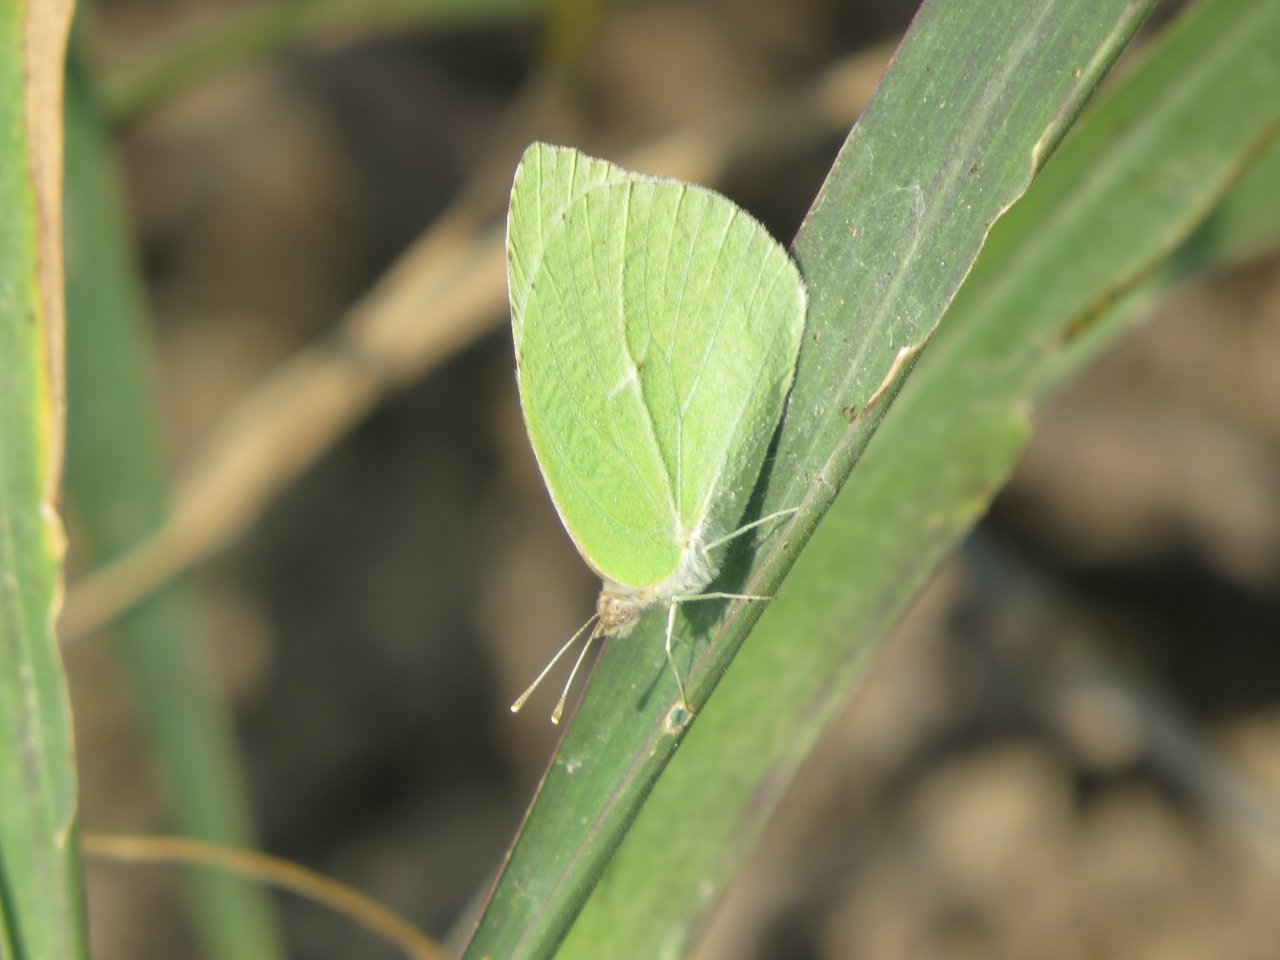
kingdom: Animalia
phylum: Arthropoda
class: Insecta
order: Lepidoptera
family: Pieridae
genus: Kricogonia
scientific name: Kricogonia lyside
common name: Lyside Sulphur
